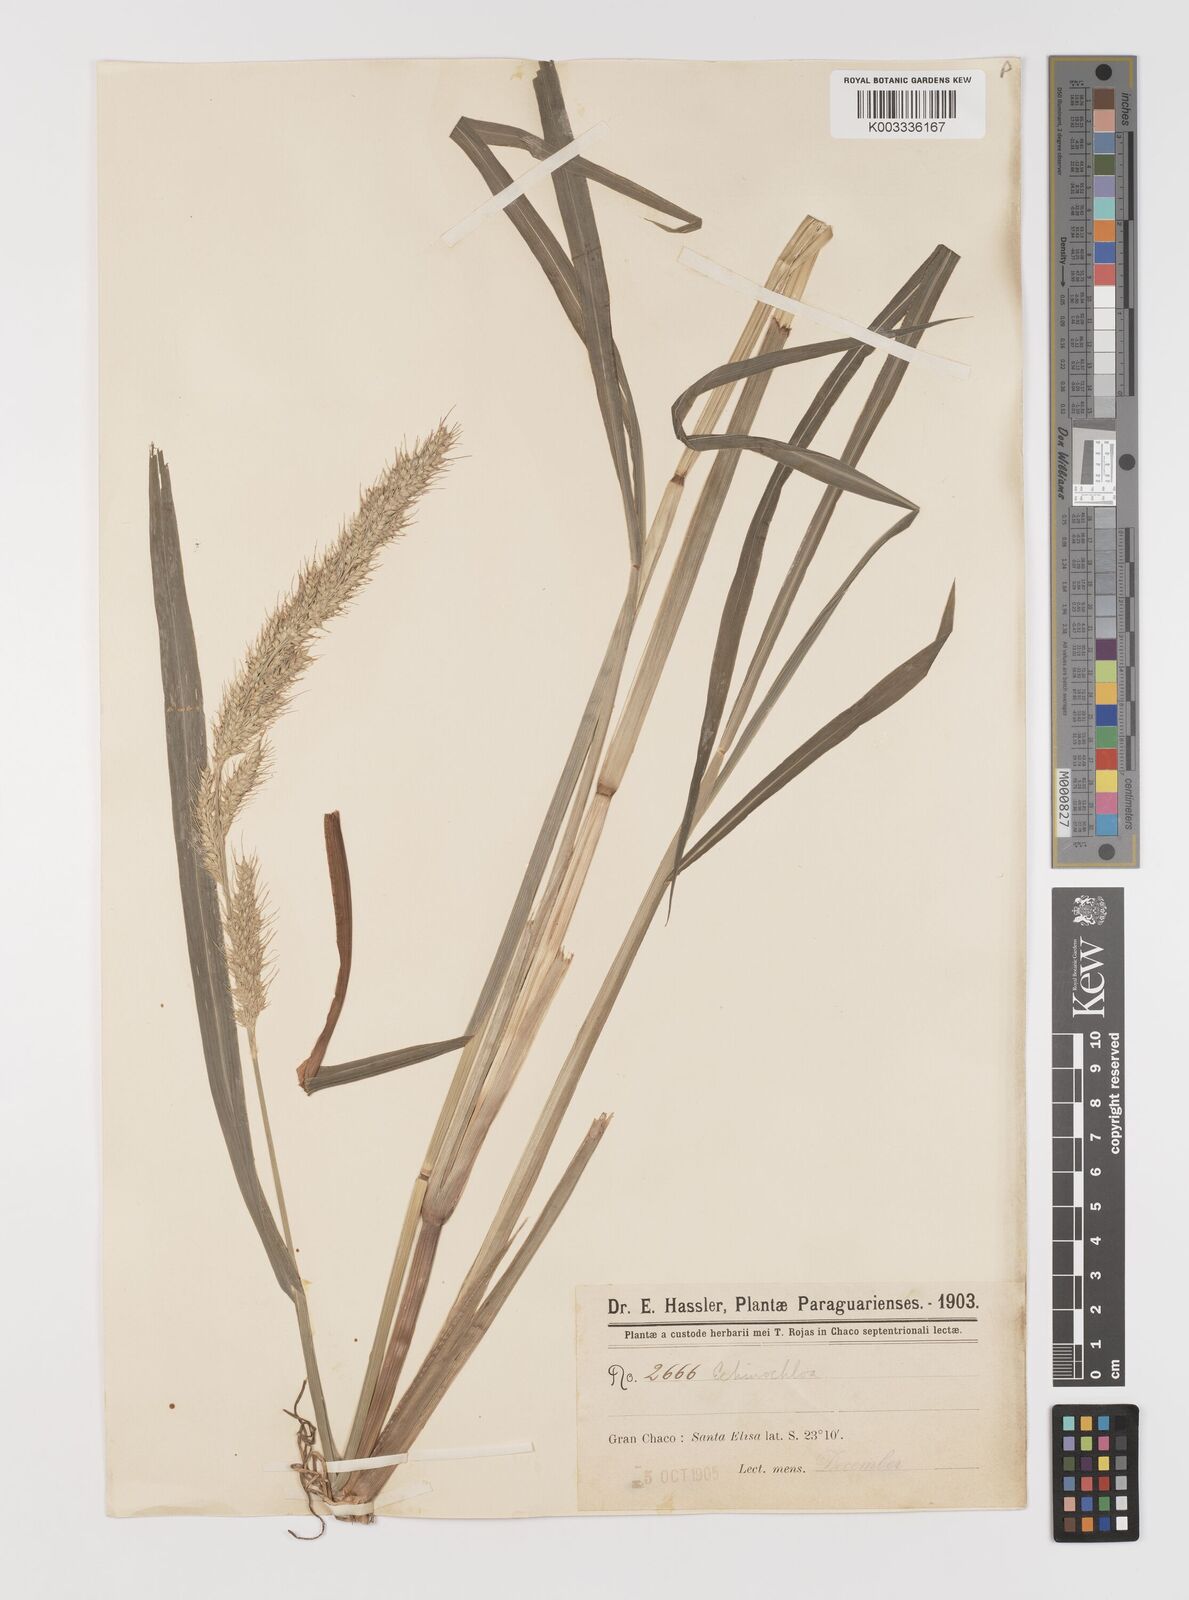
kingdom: Plantae
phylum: Tracheophyta
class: Liliopsida
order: Poales
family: Poaceae
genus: Echinochloa
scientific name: Echinochloa crus-pavonis
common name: Gulf cockspur grass
